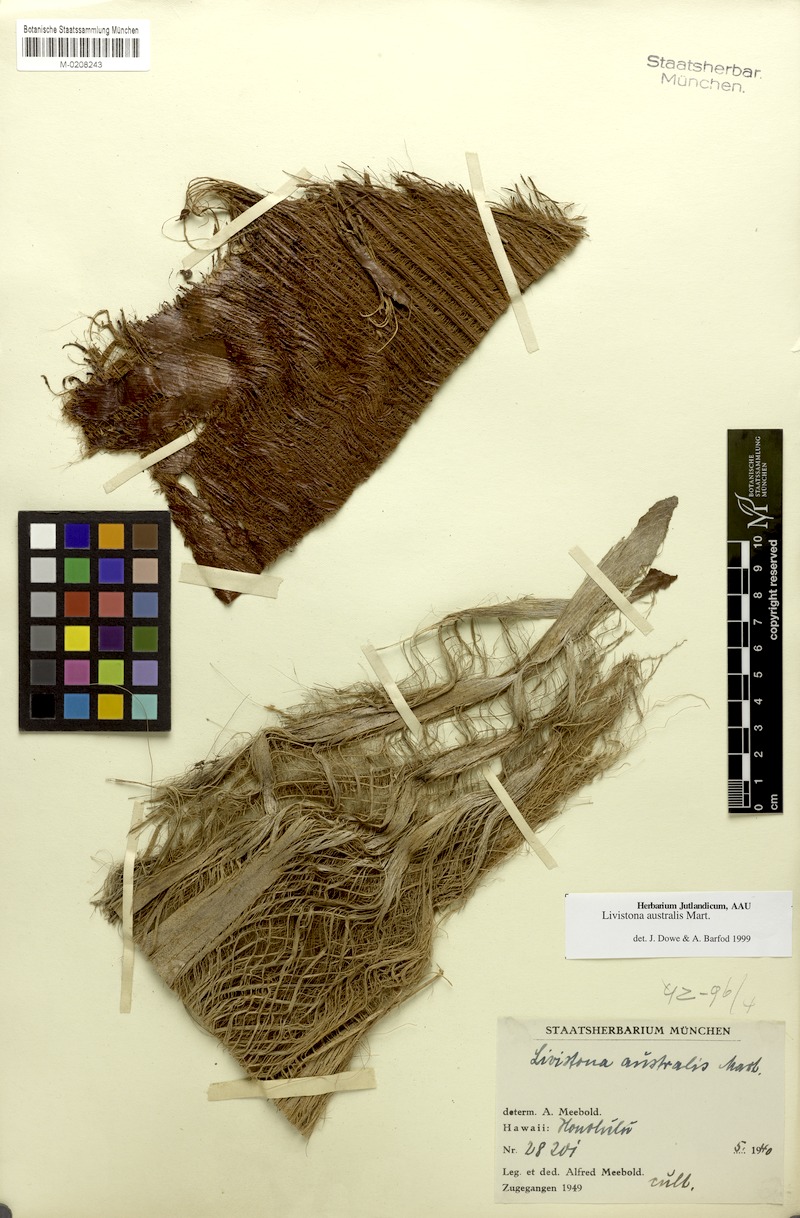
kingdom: Plantae
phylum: Tracheophyta
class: Liliopsida
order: Arecales
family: Arecaceae
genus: Livistona
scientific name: Livistona australis
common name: Cabbage fan palm
